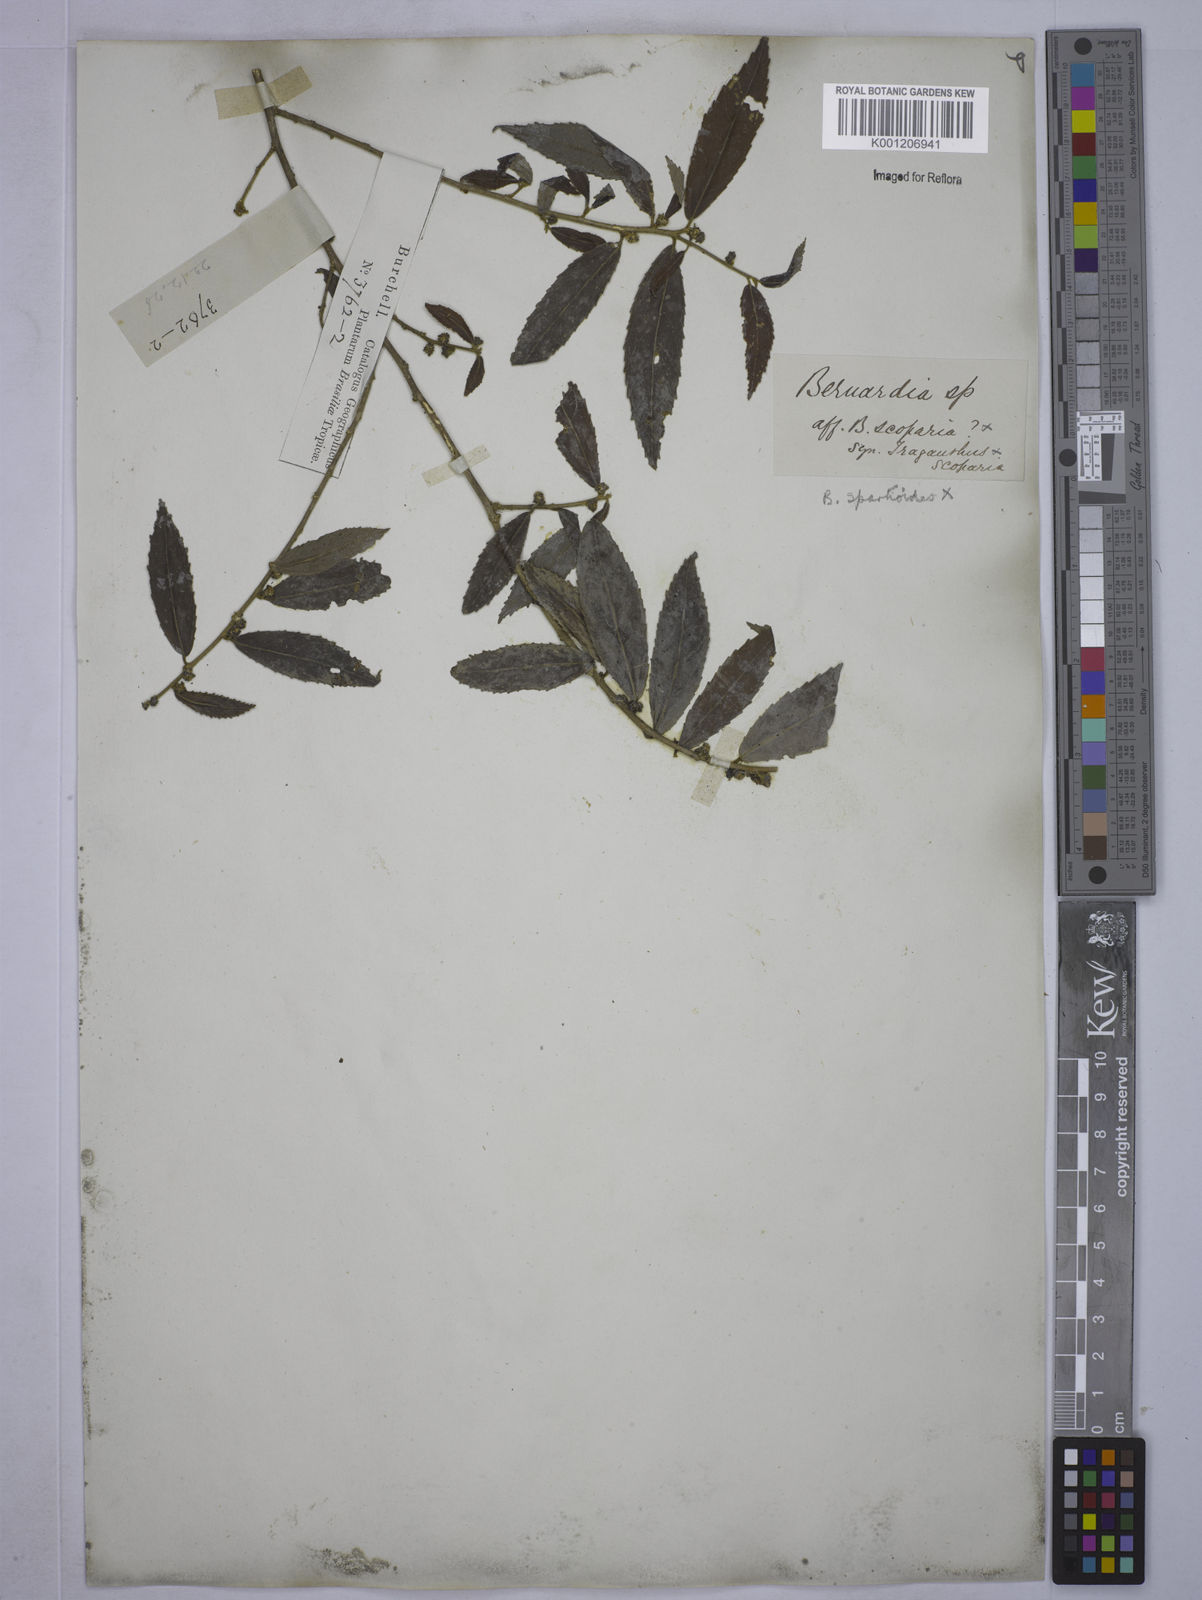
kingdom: Plantae
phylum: Tracheophyta
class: Magnoliopsida
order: Malpighiales
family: Euphorbiaceae
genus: Bernardia
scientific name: Bernardia celastrinea
